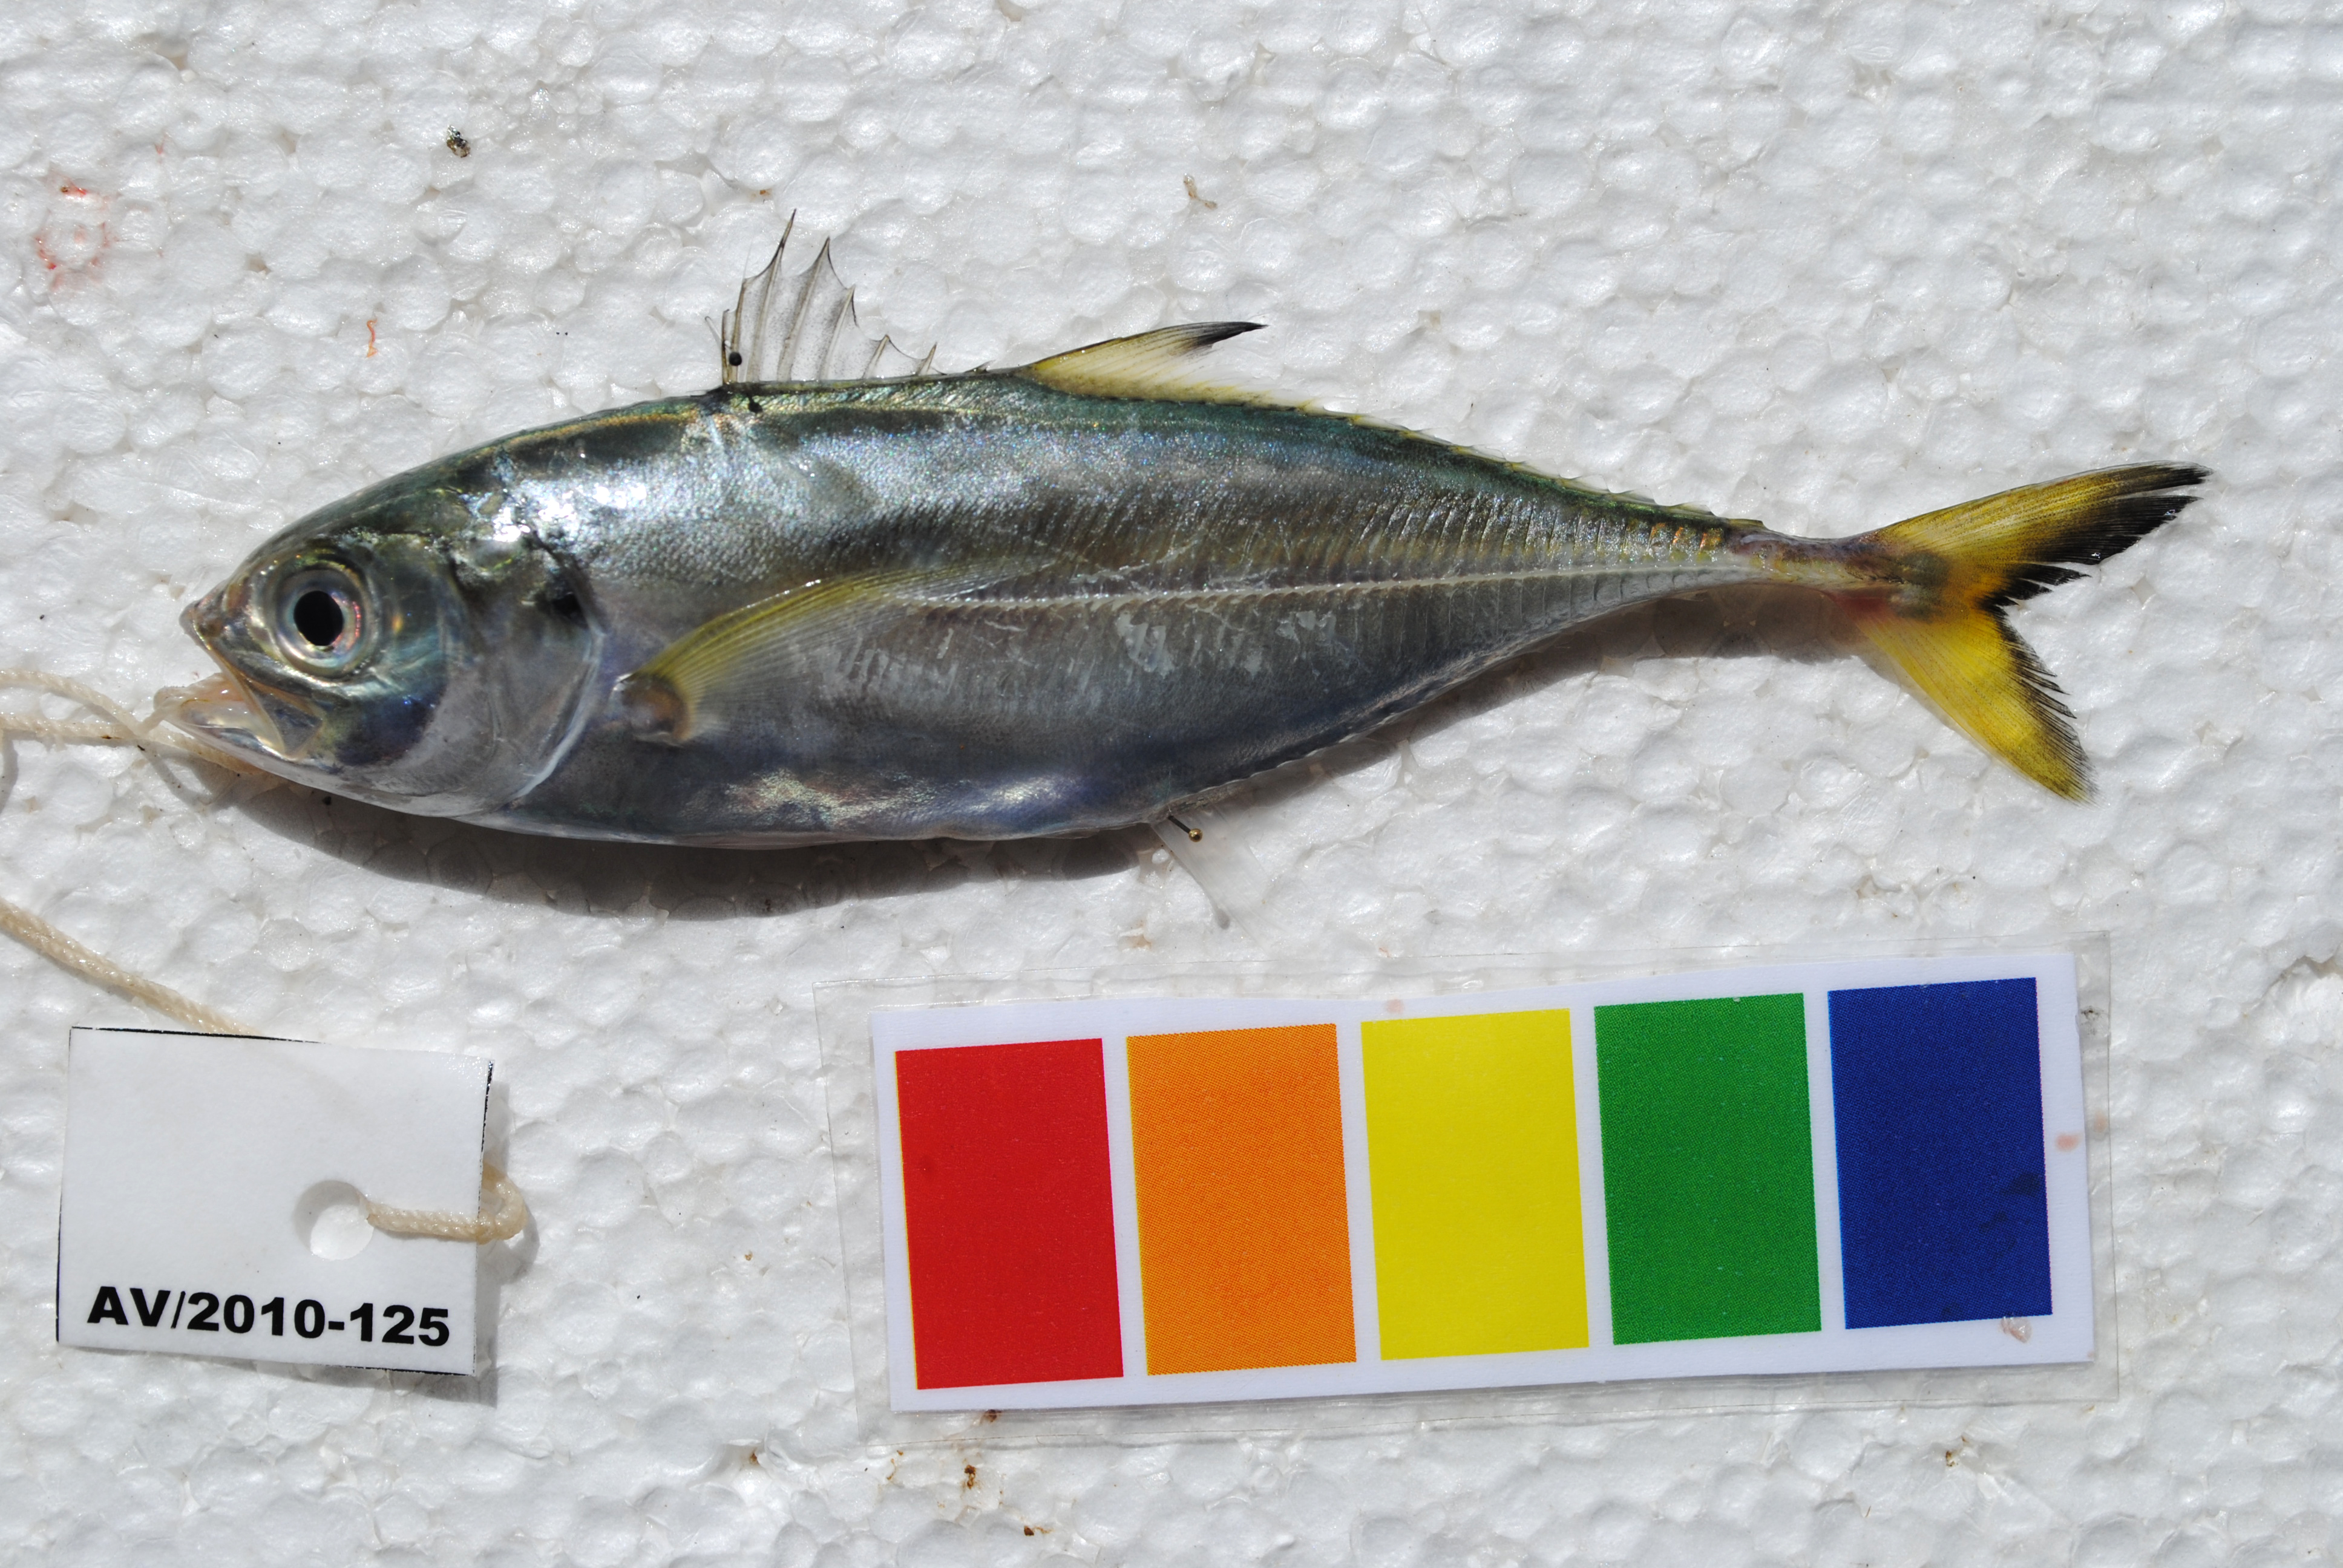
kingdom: Animalia
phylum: Chordata
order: Perciformes
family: Carangidae
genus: Megalaspis
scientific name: Megalaspis cordyla
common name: Torpedo scad
